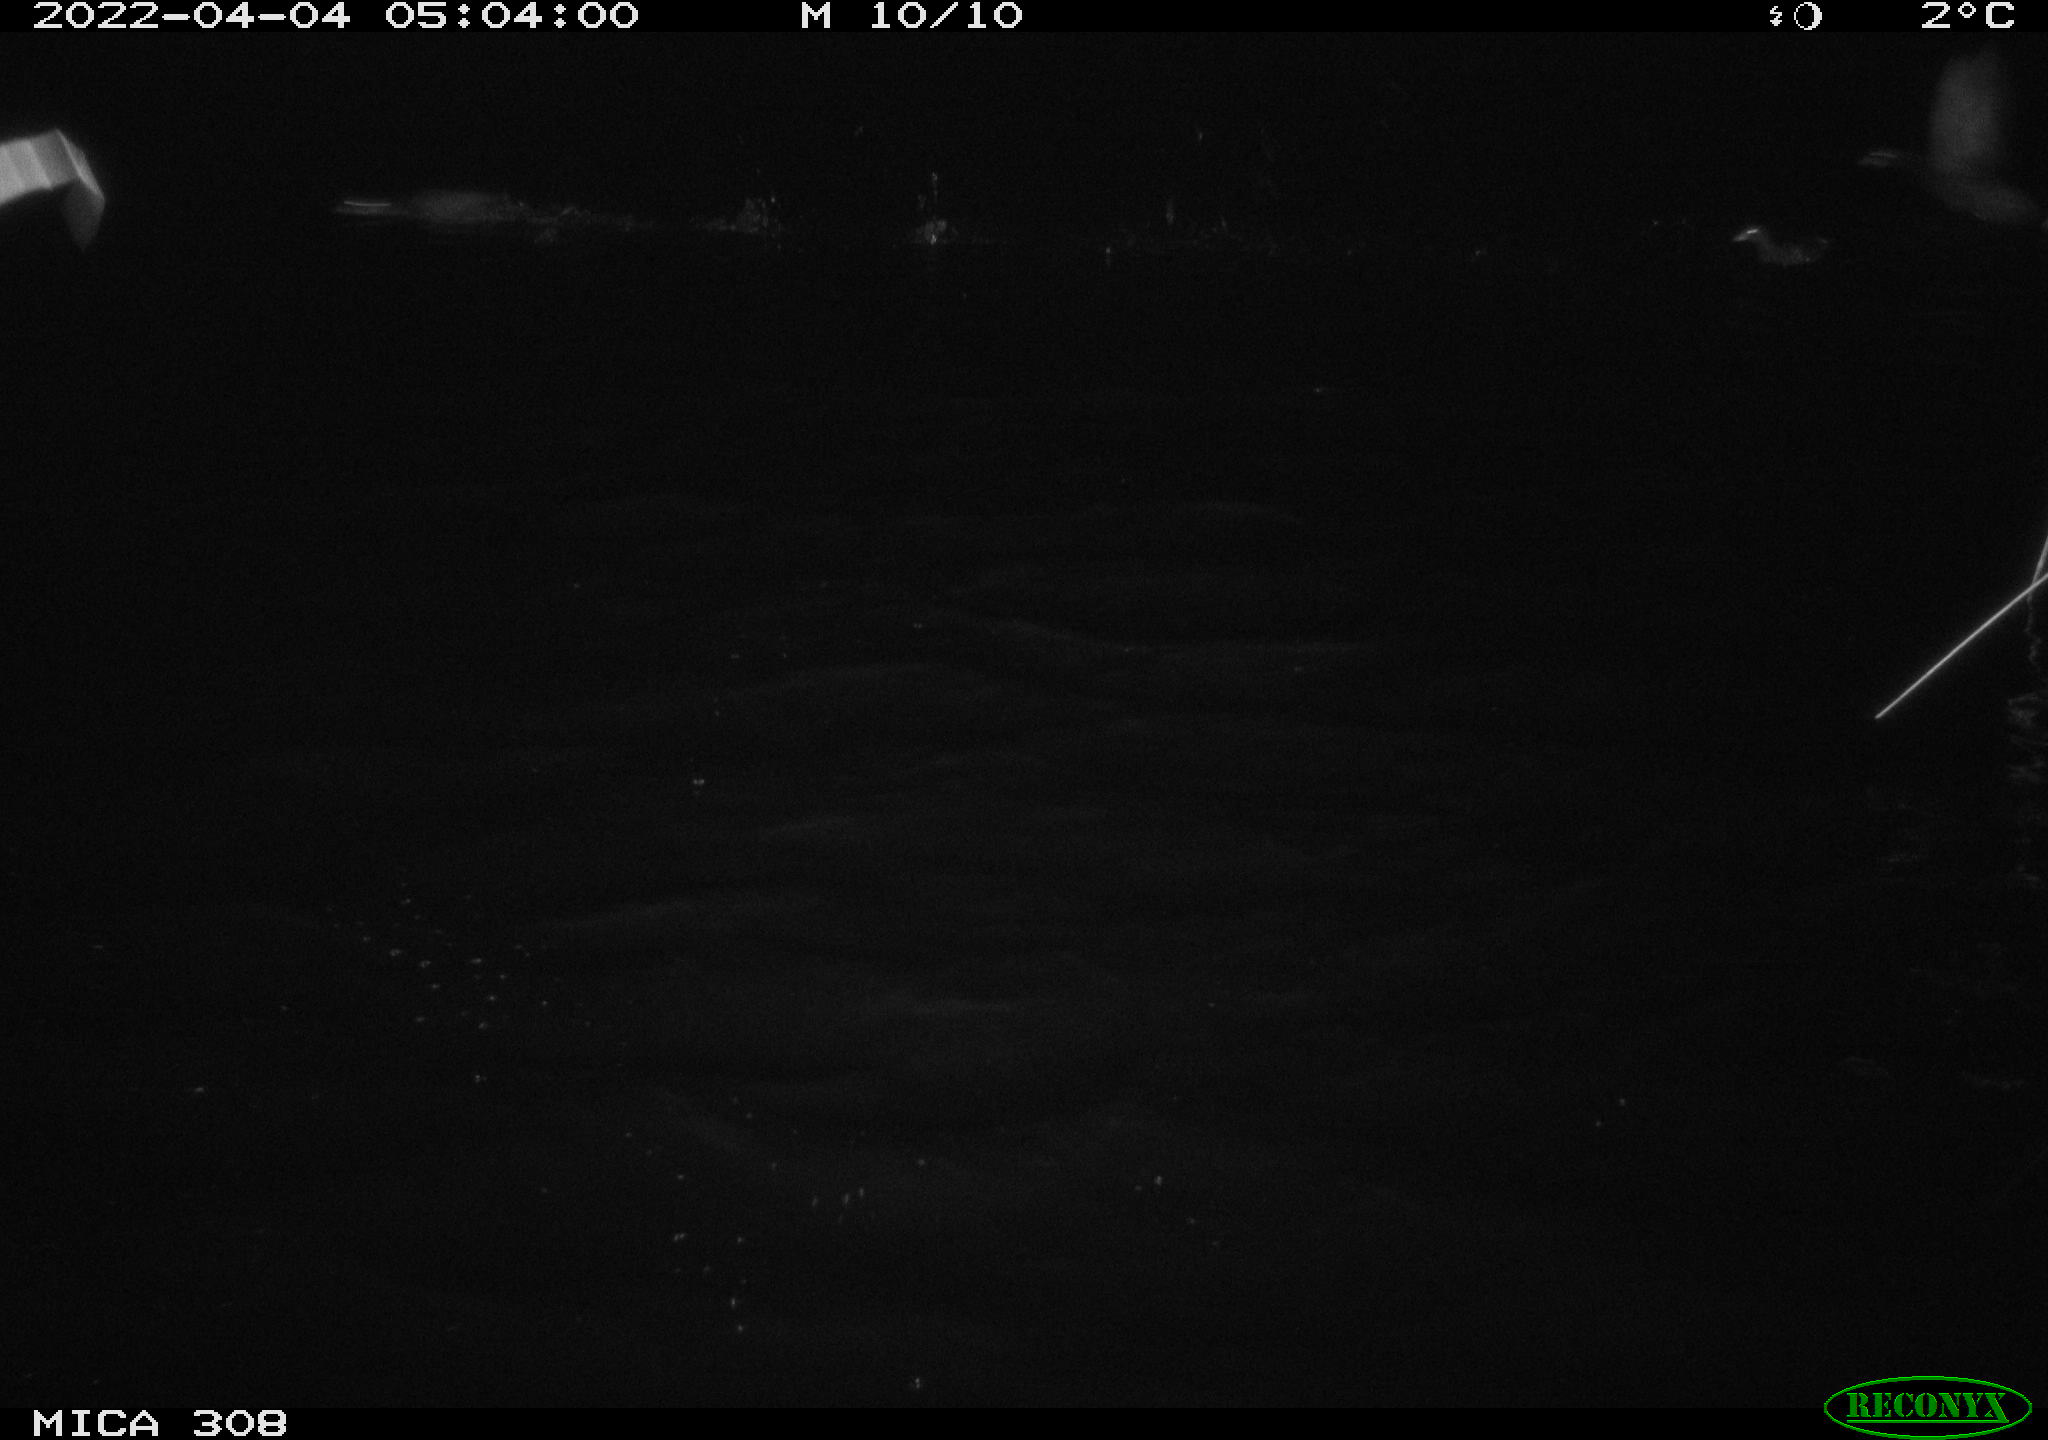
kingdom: Animalia
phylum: Chordata
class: Aves
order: Anseriformes
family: Anatidae
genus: Anas
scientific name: Anas platyrhynchos
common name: Mallard
